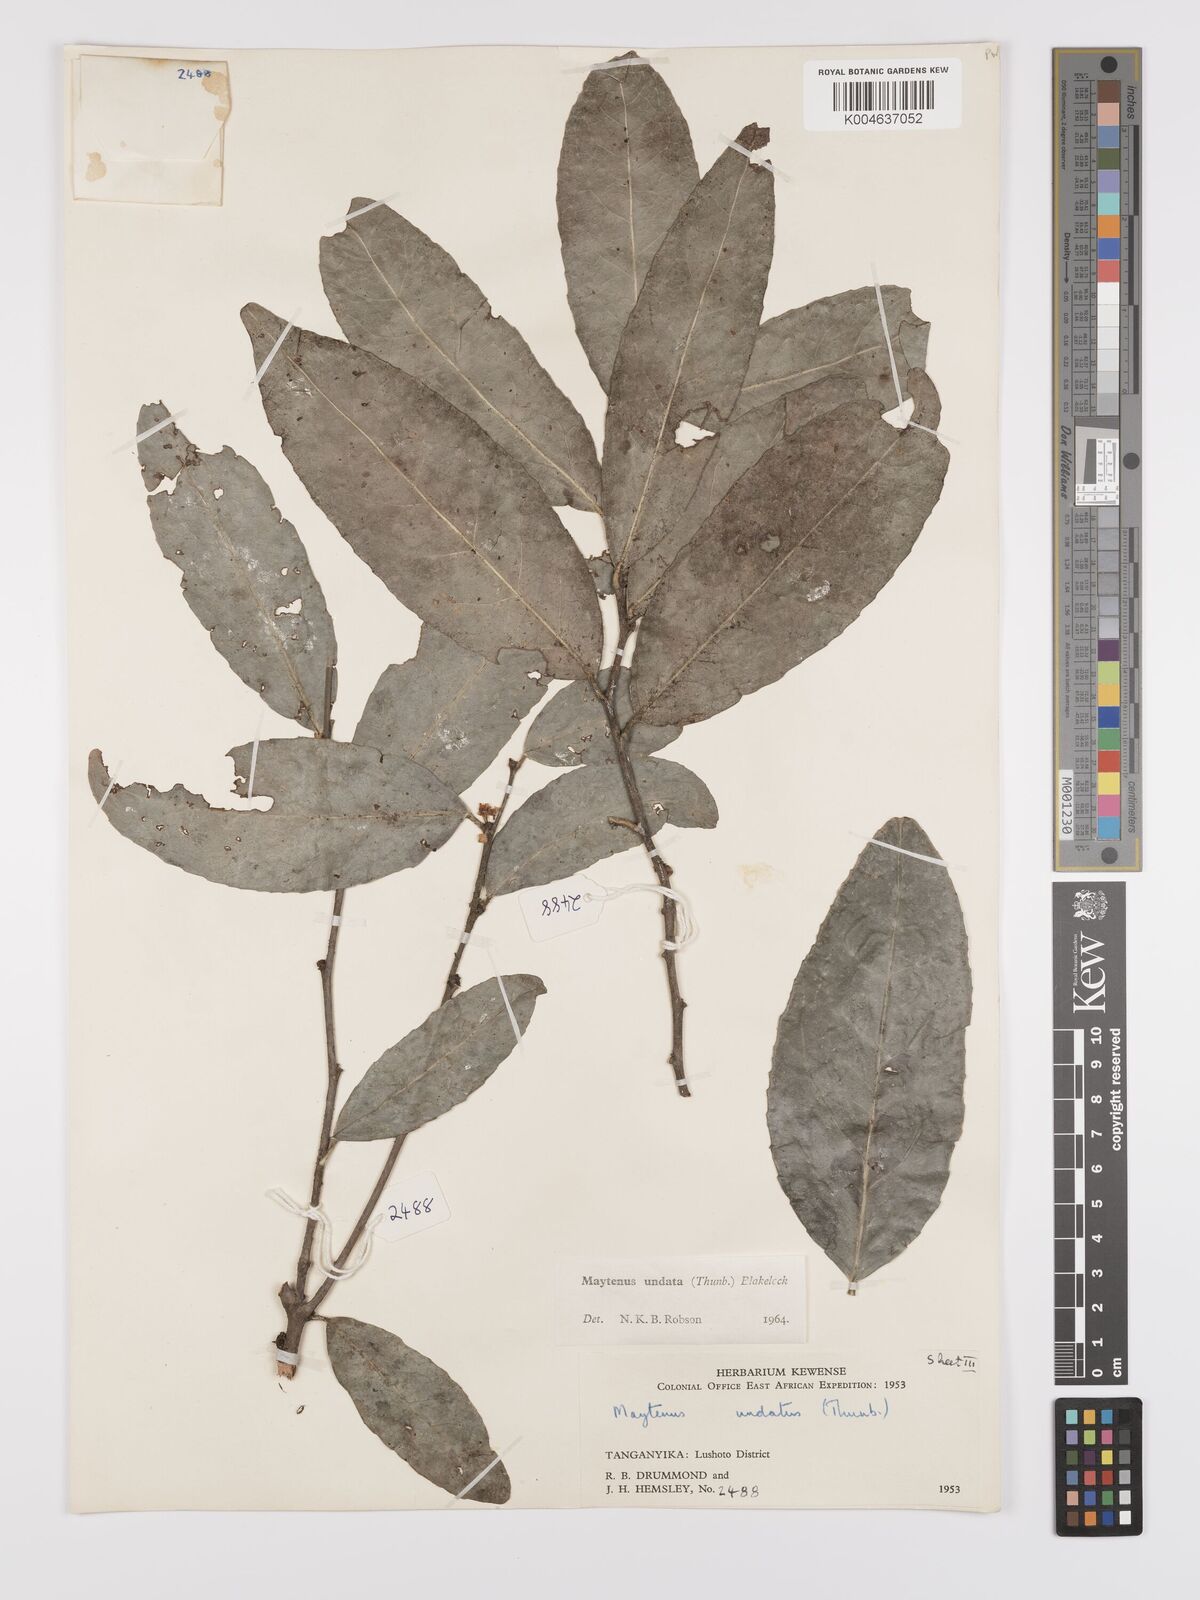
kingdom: Plantae
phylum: Tracheophyta
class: Magnoliopsida
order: Celastrales
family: Celastraceae
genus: Gymnosporia
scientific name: Gymnosporia undata
